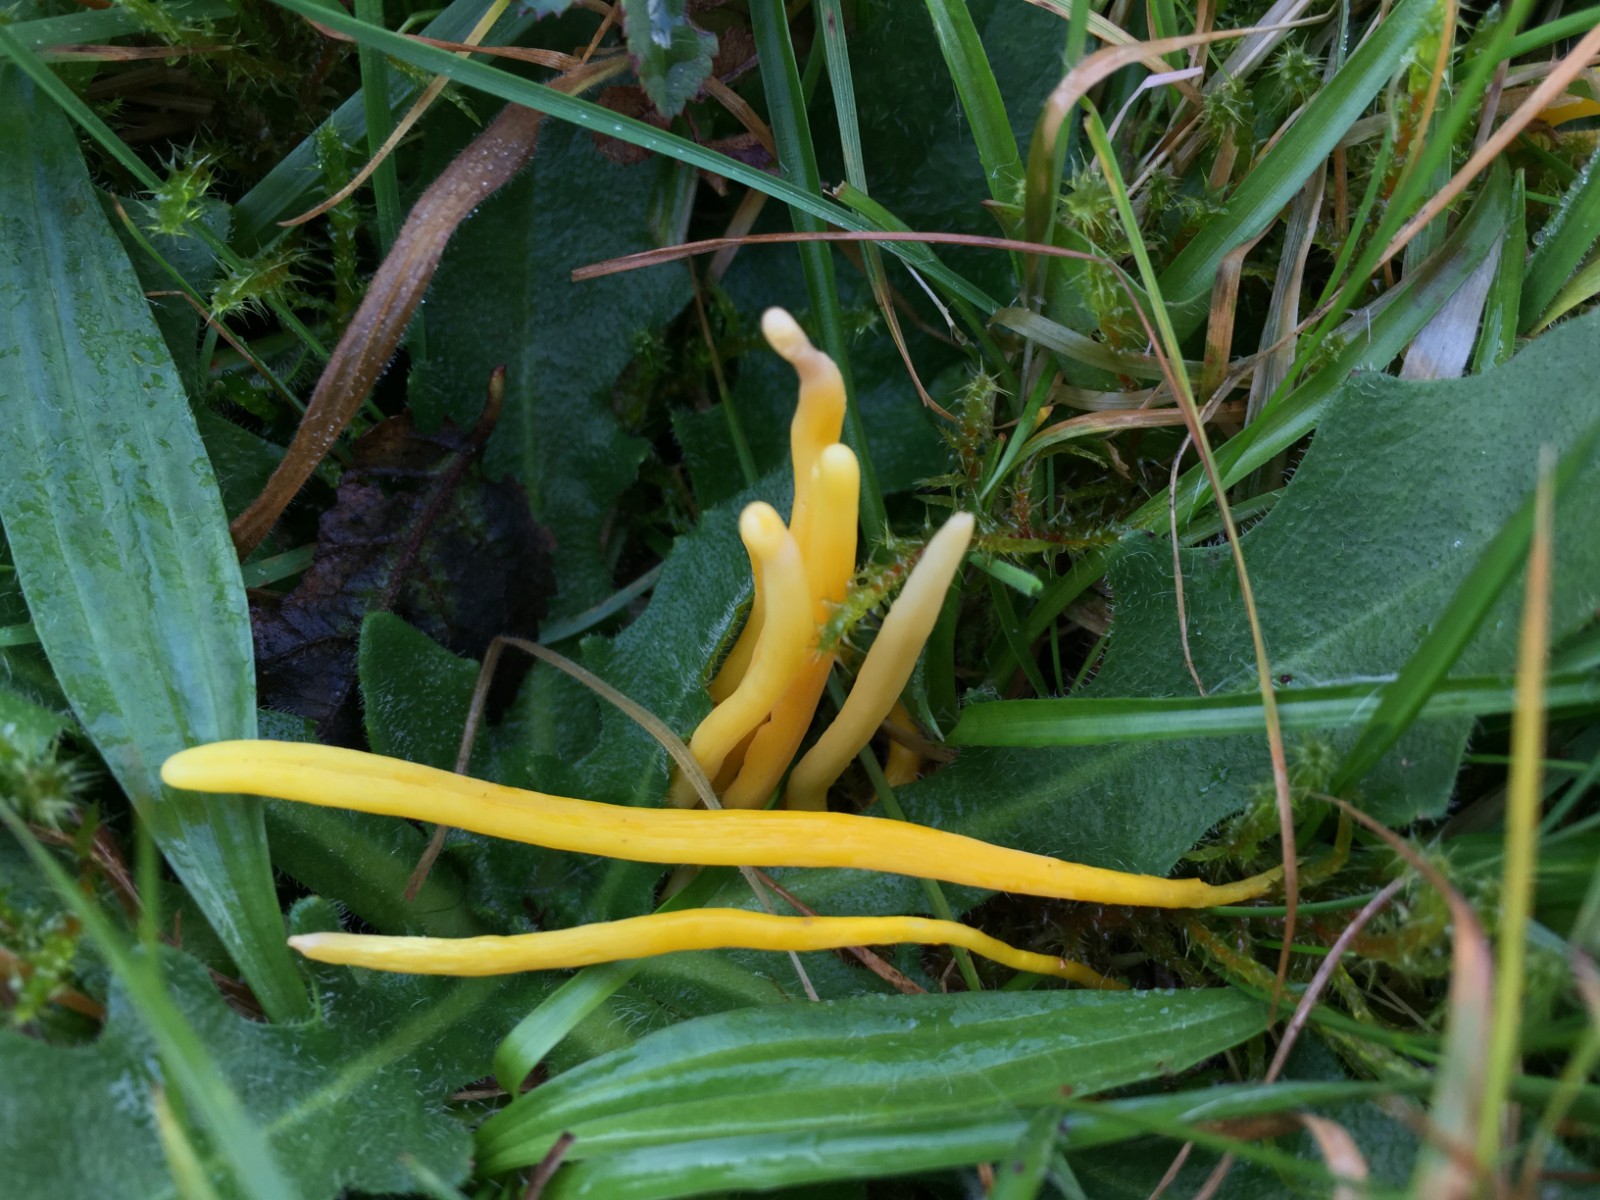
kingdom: Fungi
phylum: Basidiomycota
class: Agaricomycetes
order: Agaricales
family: Clavariaceae
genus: Clavulinopsis
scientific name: Clavulinopsis helvola
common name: orangegul køllesvamp
